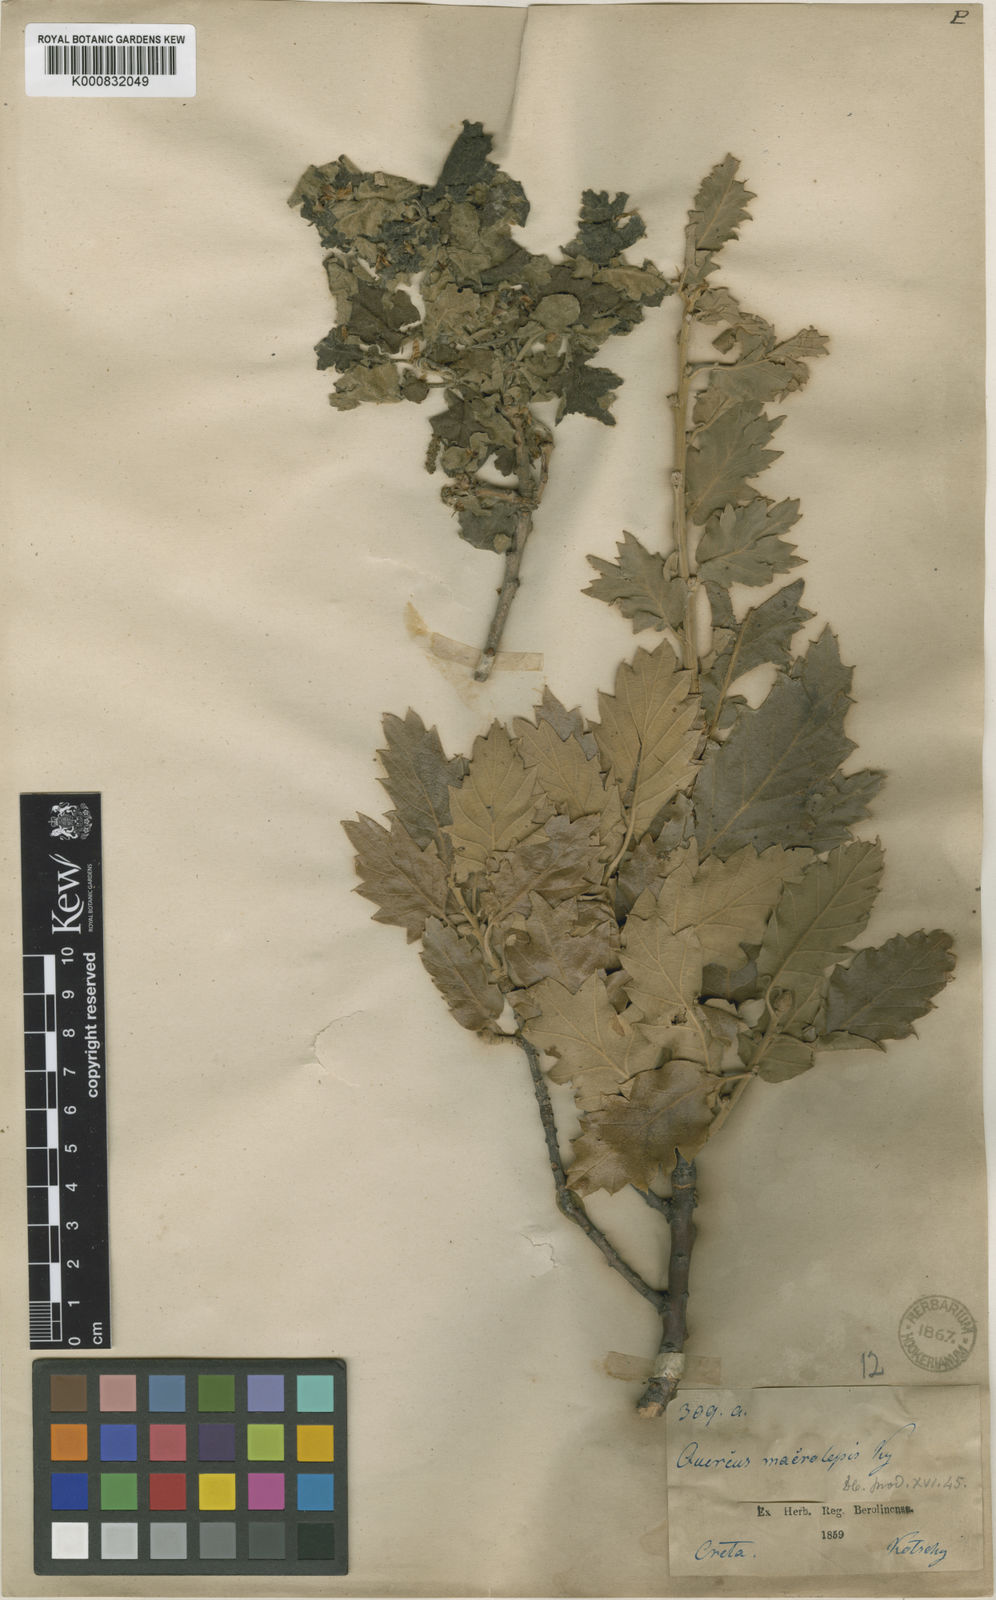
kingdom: Plantae
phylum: Tracheophyta
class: Magnoliopsida
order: Fagales
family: Fagaceae
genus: Quercus
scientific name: Quercus ithaburensis
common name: Tabor oak
